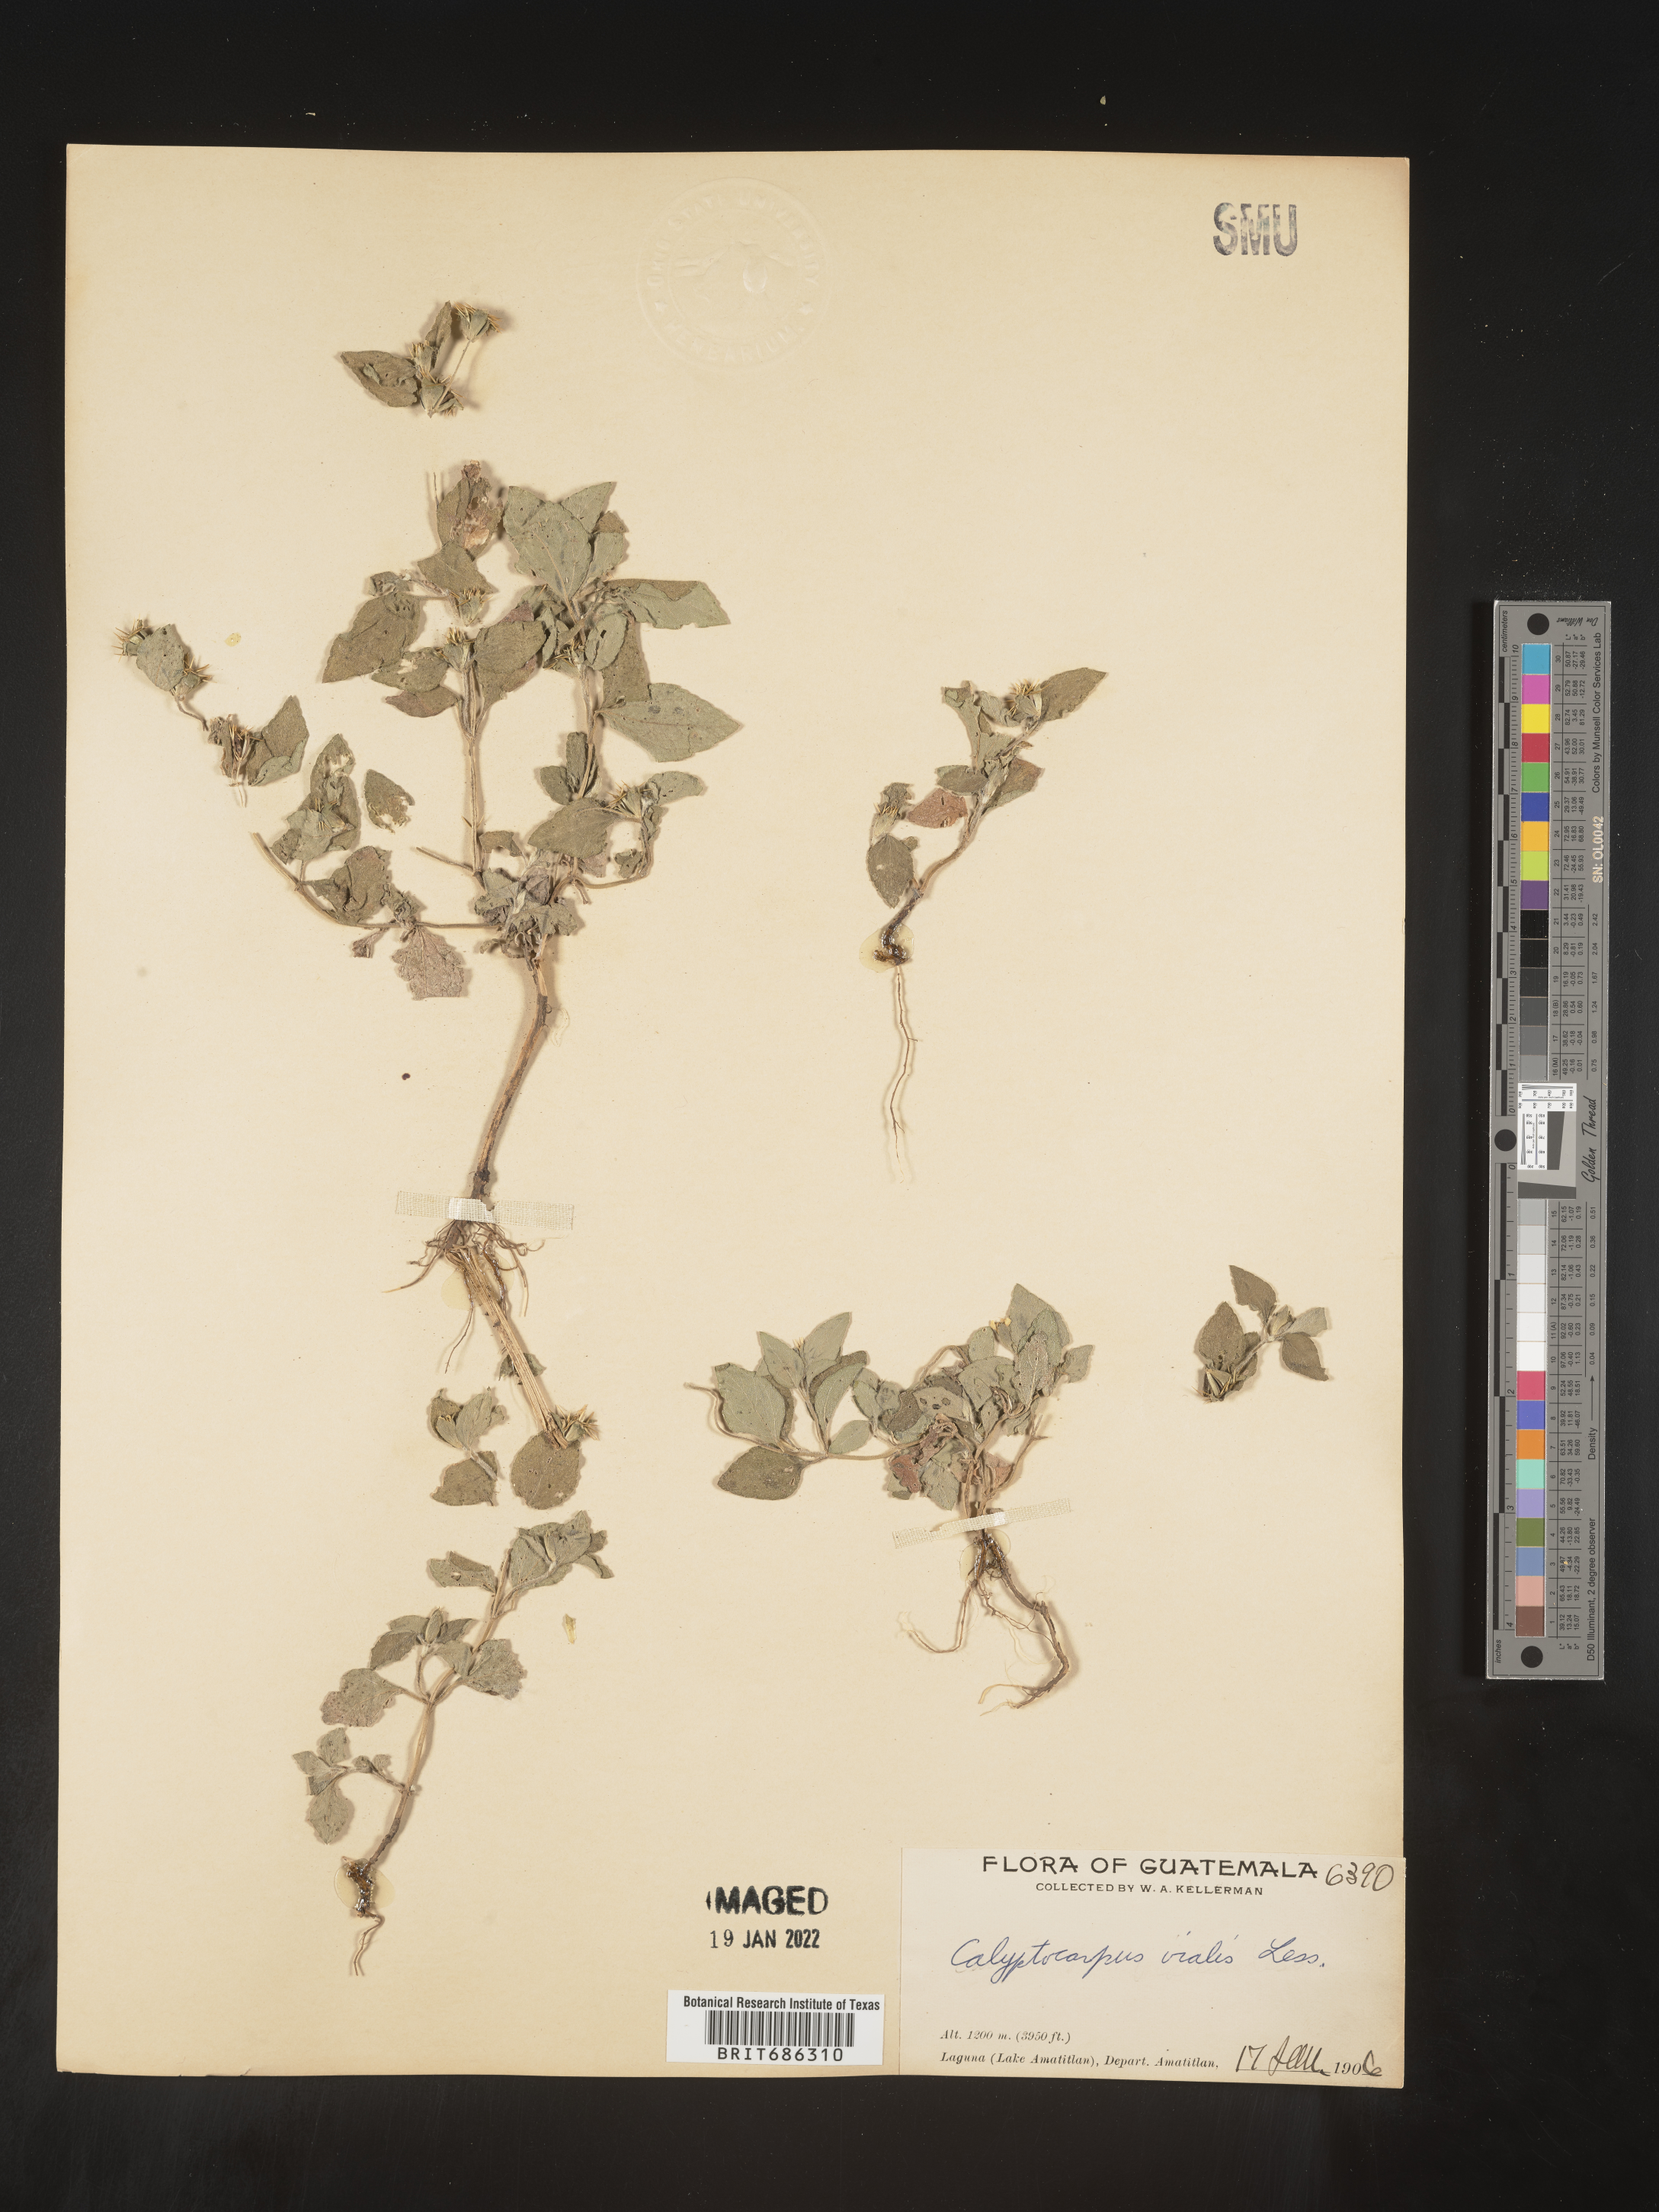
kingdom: Plantae
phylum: Tracheophyta
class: Magnoliopsida
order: Asterales
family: Asteraceae
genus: Calyptocarpus
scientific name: Calyptocarpus
